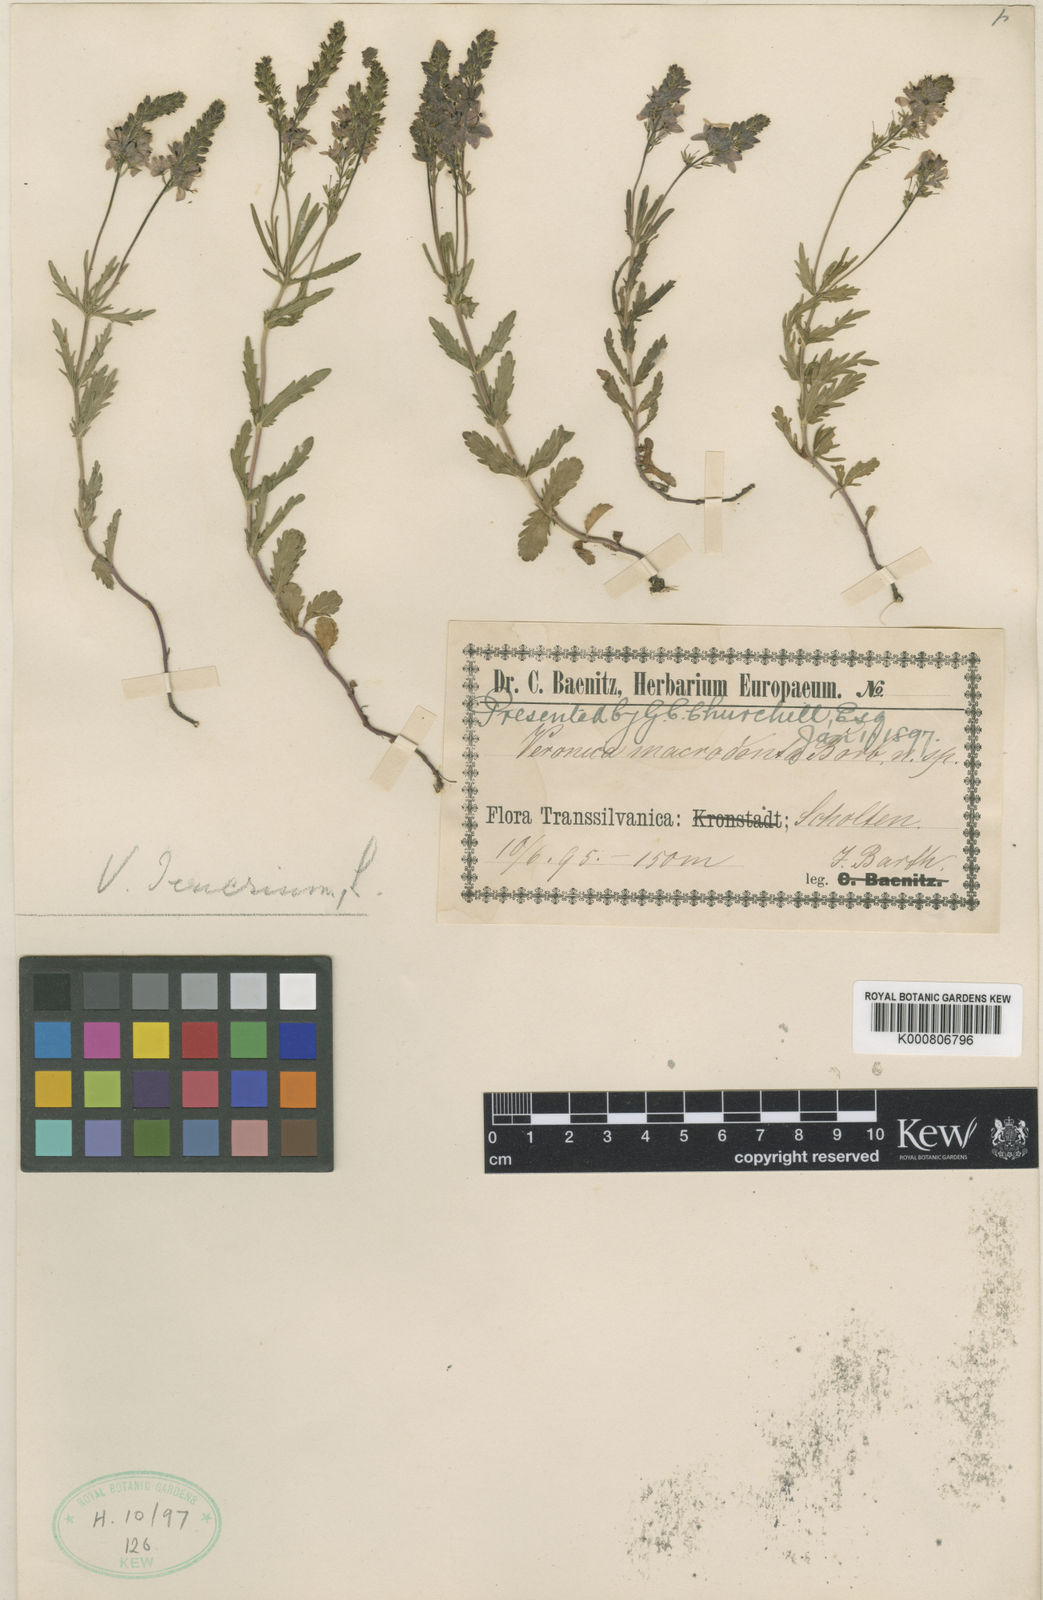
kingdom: Plantae
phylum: Tracheophyta
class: Magnoliopsida
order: Lamiales
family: Plantaginaceae
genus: Veronica
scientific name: Veronica austriaca
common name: Large speedwell
